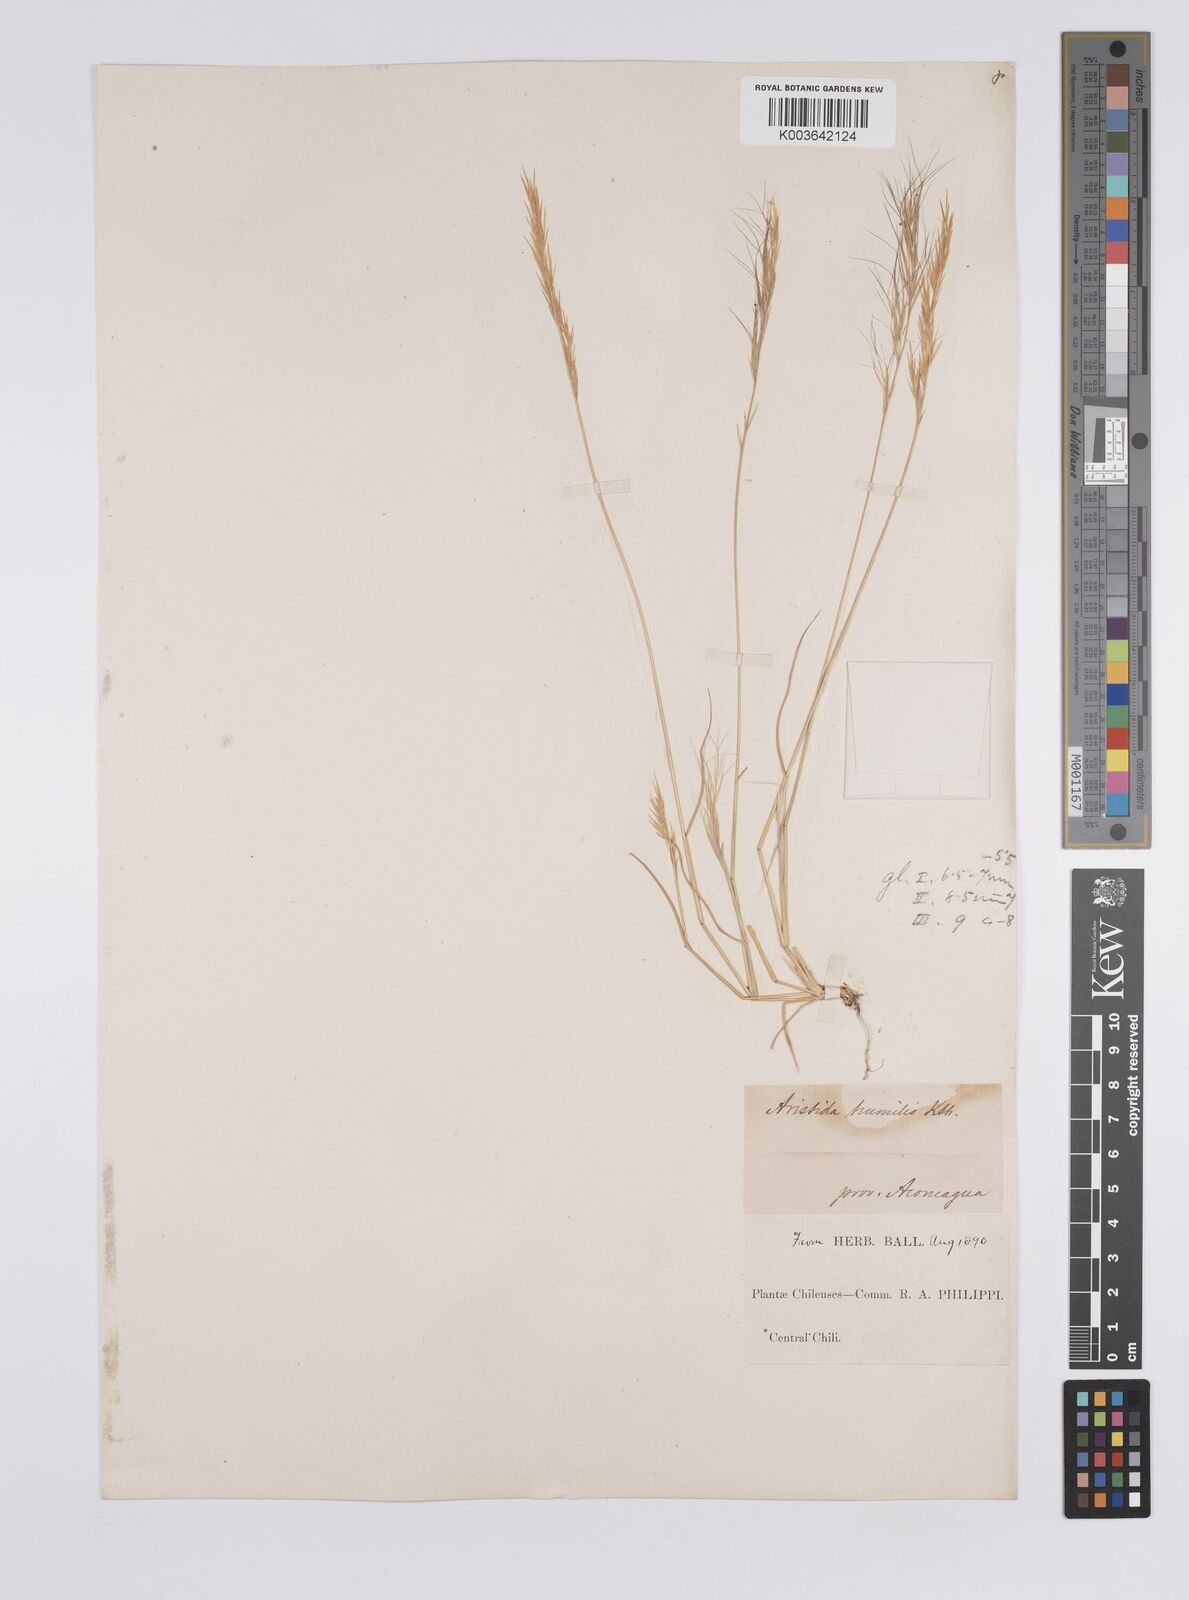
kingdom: Plantae
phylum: Tracheophyta
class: Liliopsida
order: Poales
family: Poaceae
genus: Aristida
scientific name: Aristida adscensionis
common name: Sixweeks threeawn
